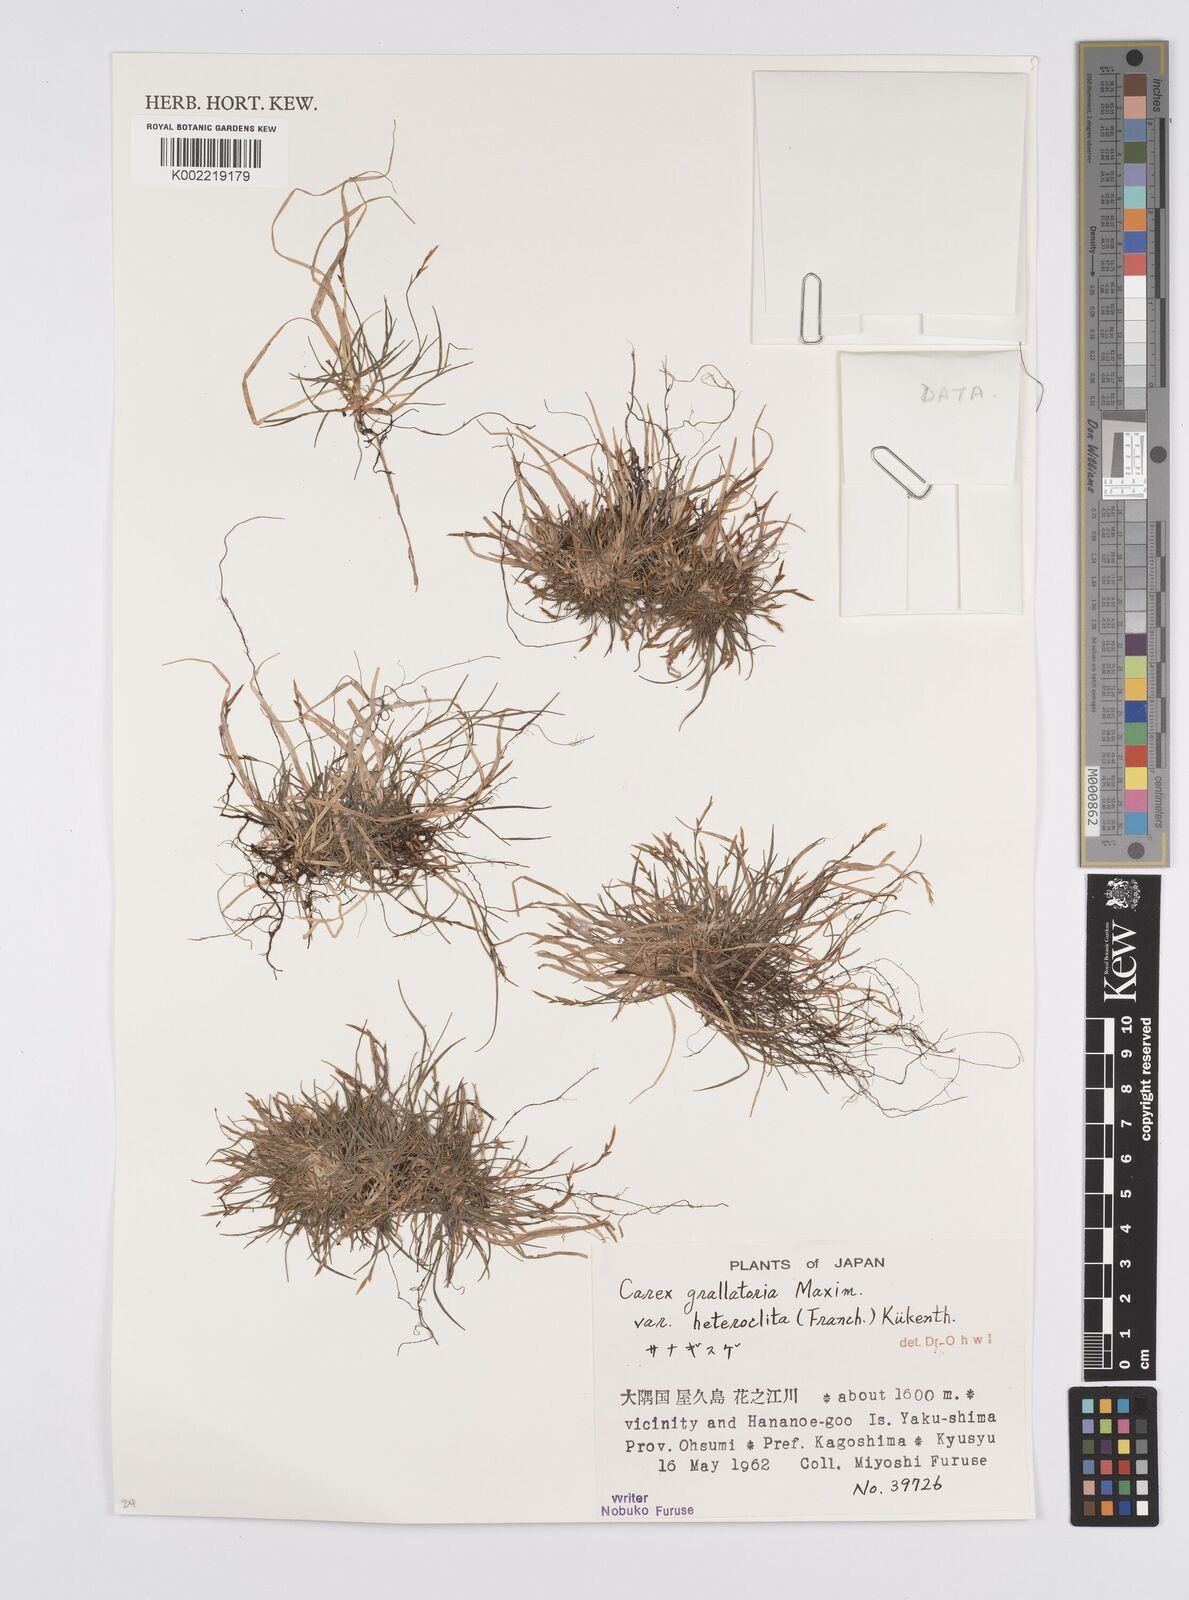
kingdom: Plantae
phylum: Tracheophyta
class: Liliopsida
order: Poales
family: Cyperaceae
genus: Carex
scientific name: Carex grallatoria
